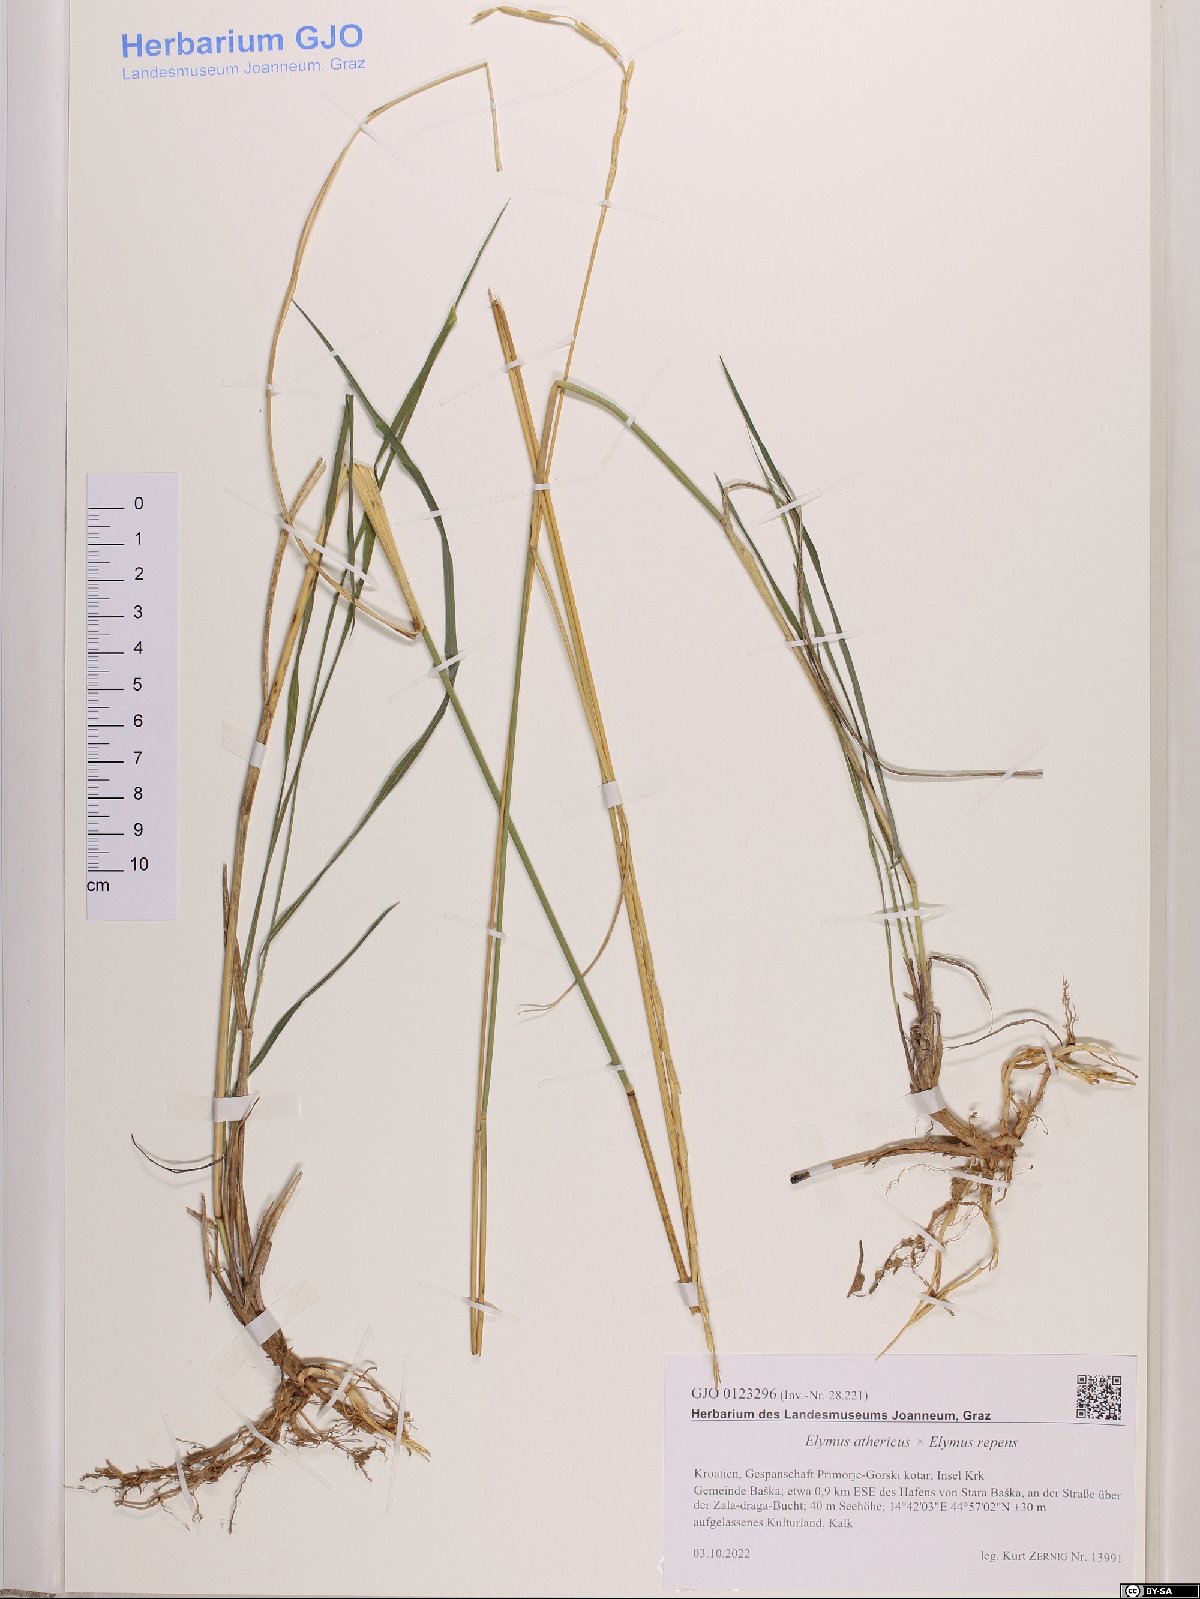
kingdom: Plantae
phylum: Tracheophyta
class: Liliopsida
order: Poales
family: Poaceae
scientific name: Poaceae
